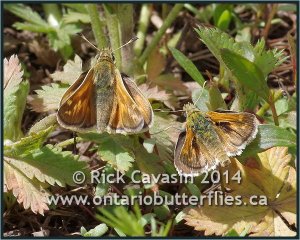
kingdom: Animalia
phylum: Arthropoda
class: Insecta
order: Lepidoptera
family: Hesperiidae
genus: Polites
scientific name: Polites sabuleti
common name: Draco Skipper
